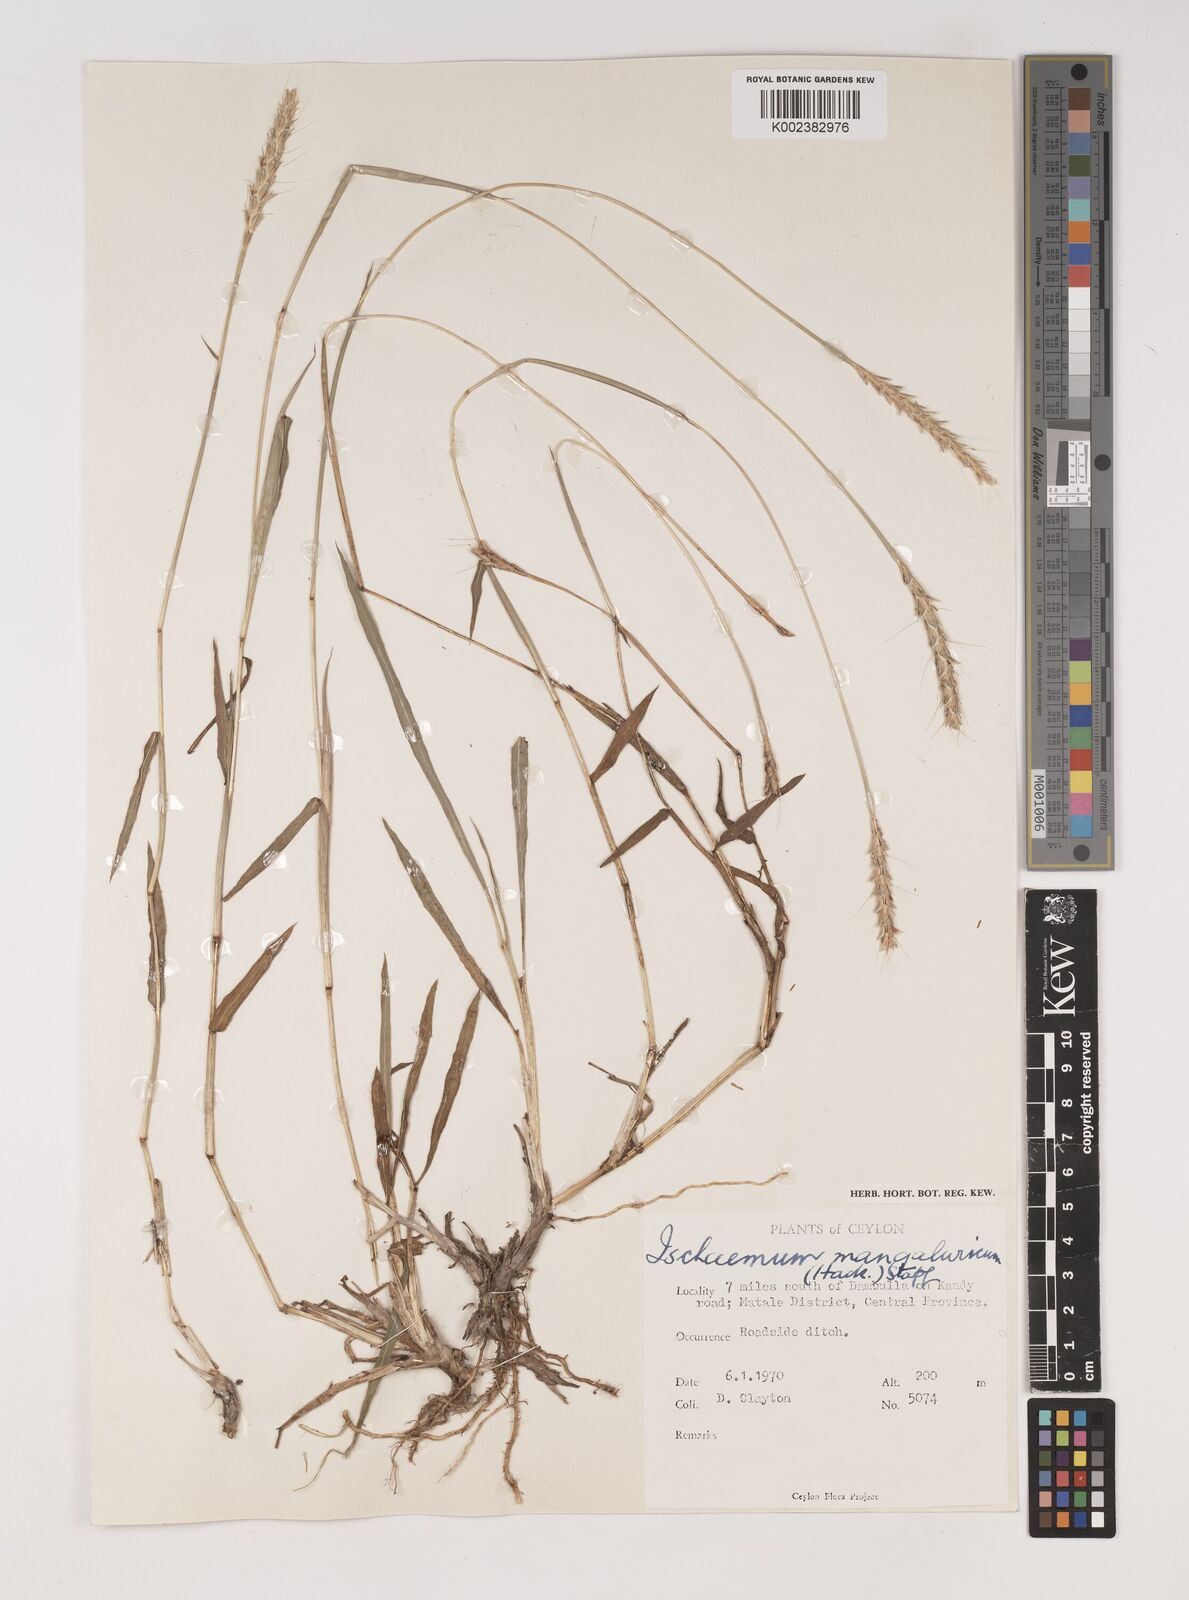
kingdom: Plantae
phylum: Tracheophyta
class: Liliopsida
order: Poales
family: Poaceae
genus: Ischaemum
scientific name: Ischaemum barbatum
